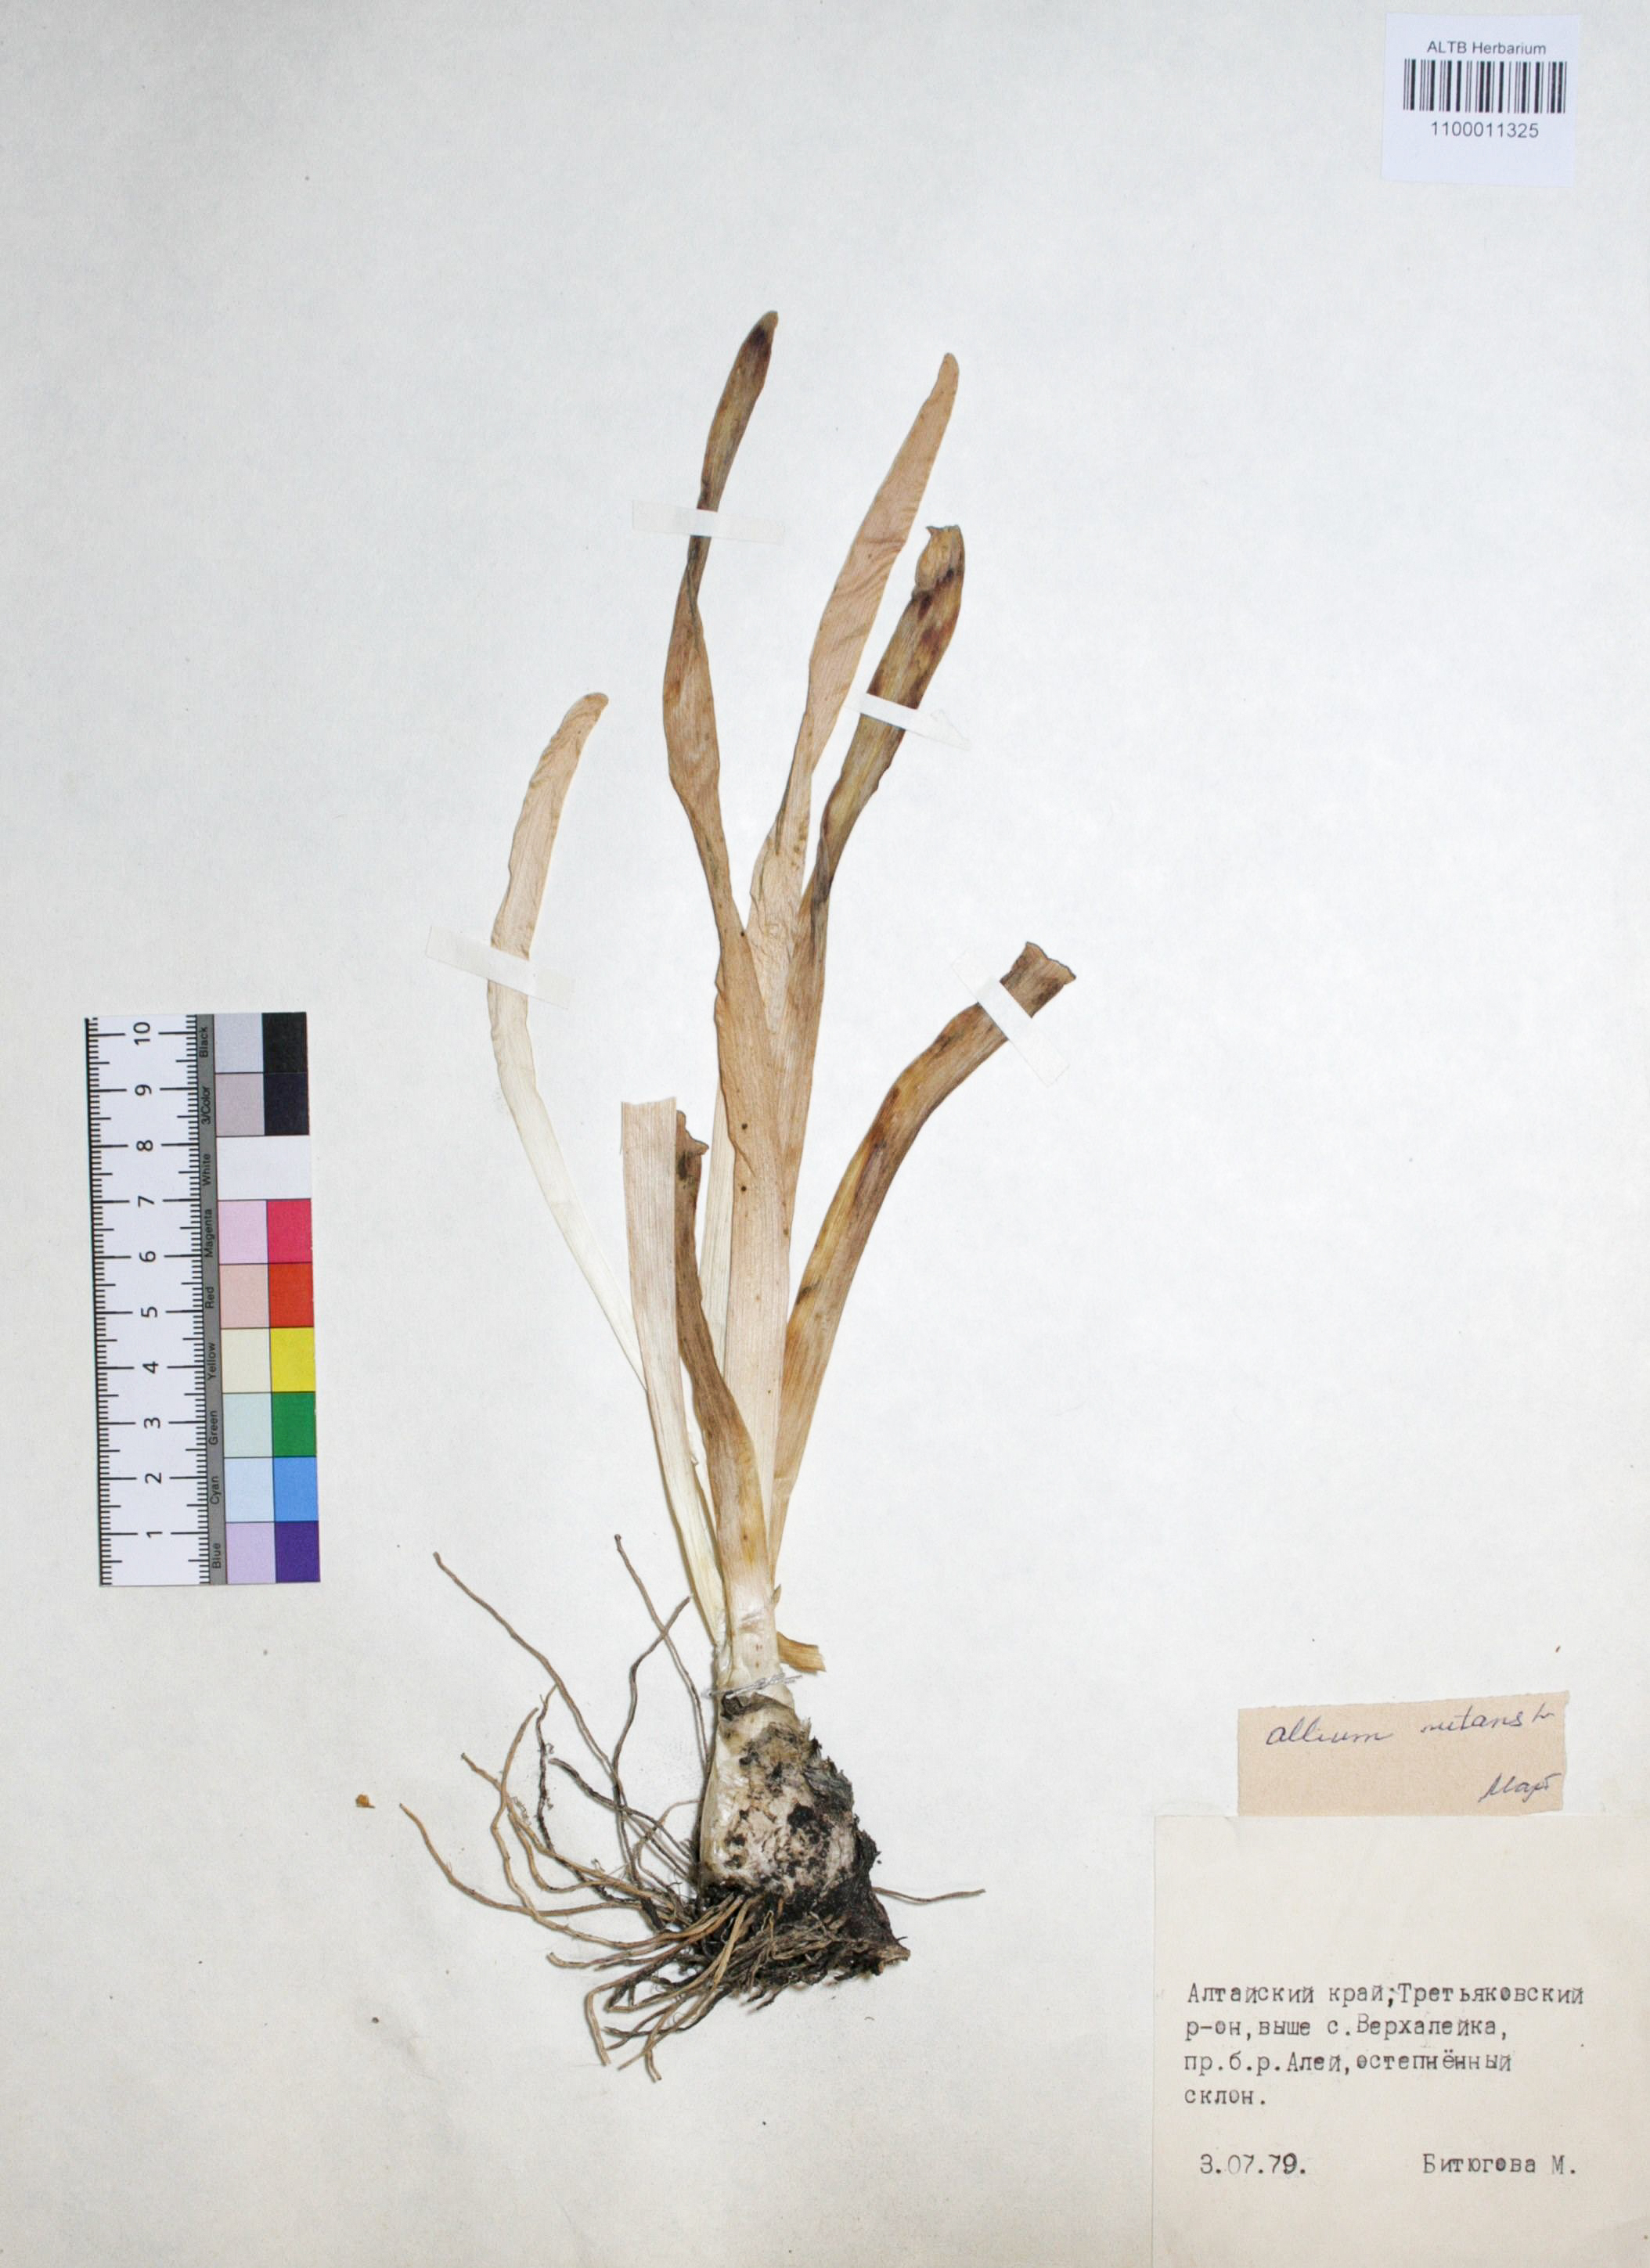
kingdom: Plantae
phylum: Tracheophyta
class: Liliopsida
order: Asparagales
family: Amaryllidaceae
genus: Allium
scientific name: Allium nutans
